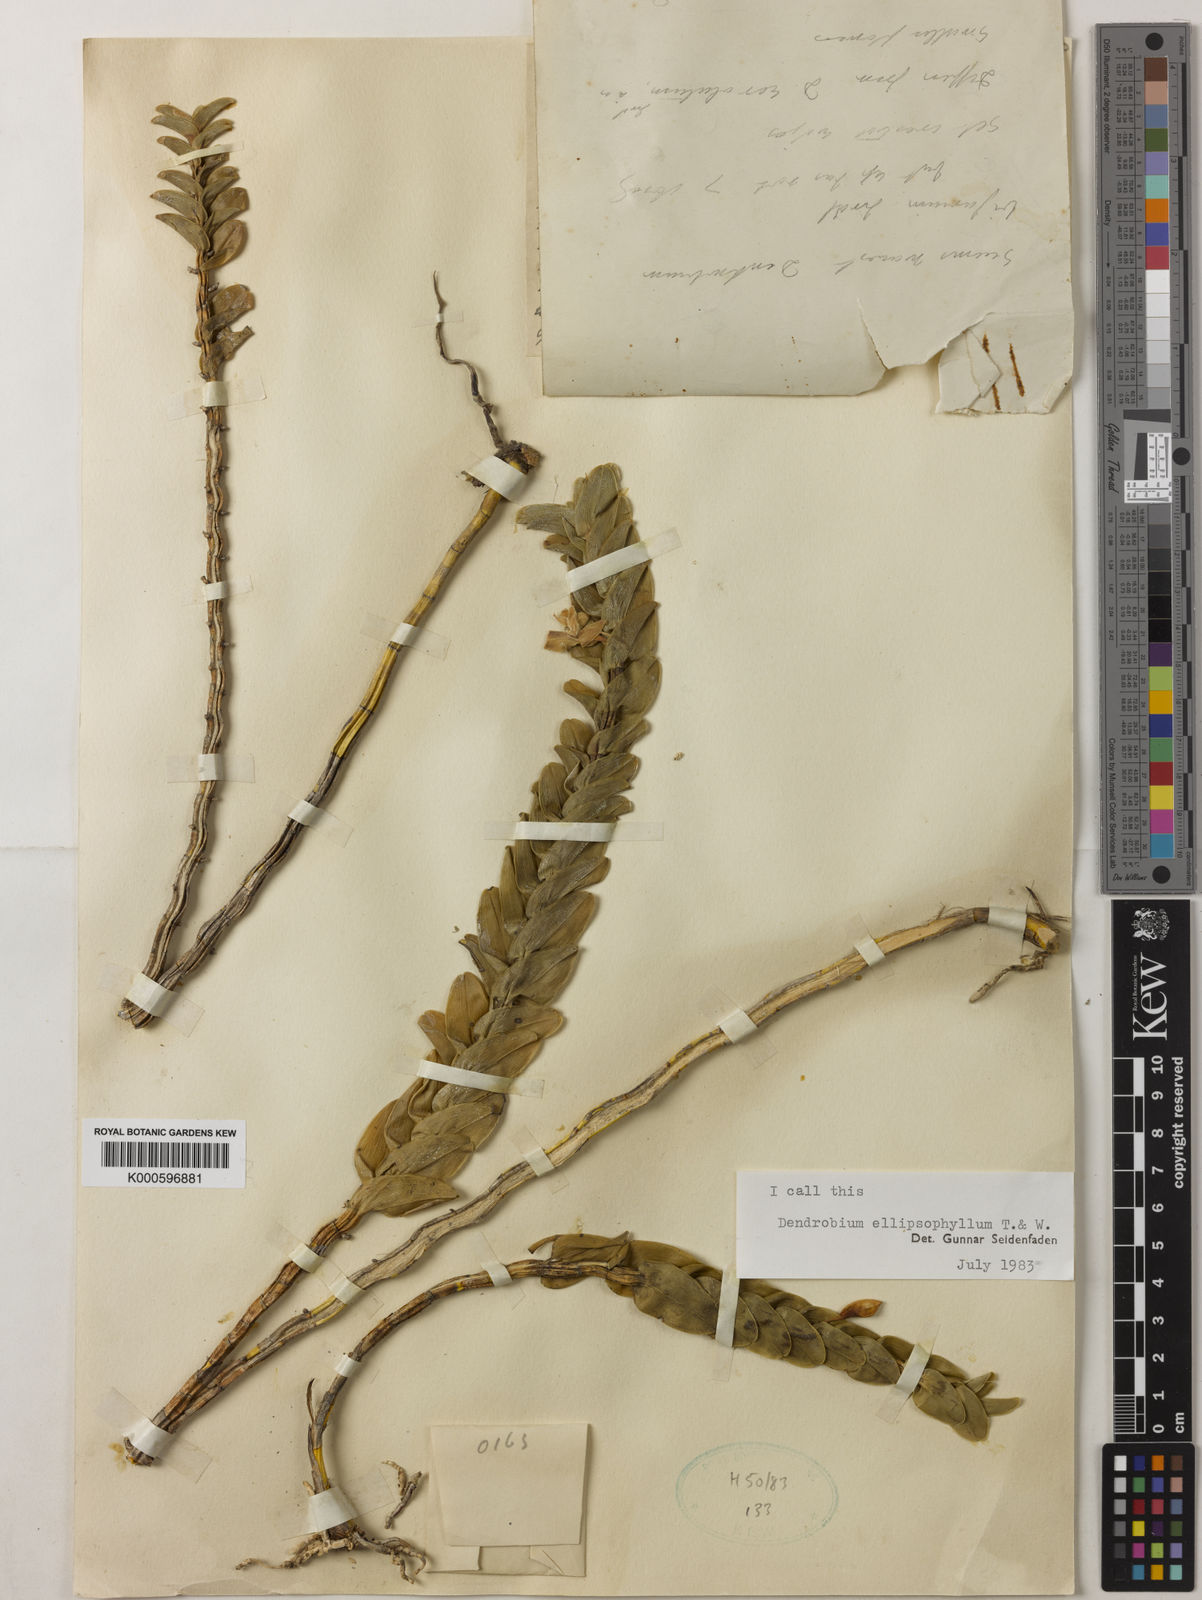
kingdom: Plantae
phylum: Tracheophyta
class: Liliopsida
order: Asparagales
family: Orchidaceae
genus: Dendrobium
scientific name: Dendrobium ellipsophyllum
